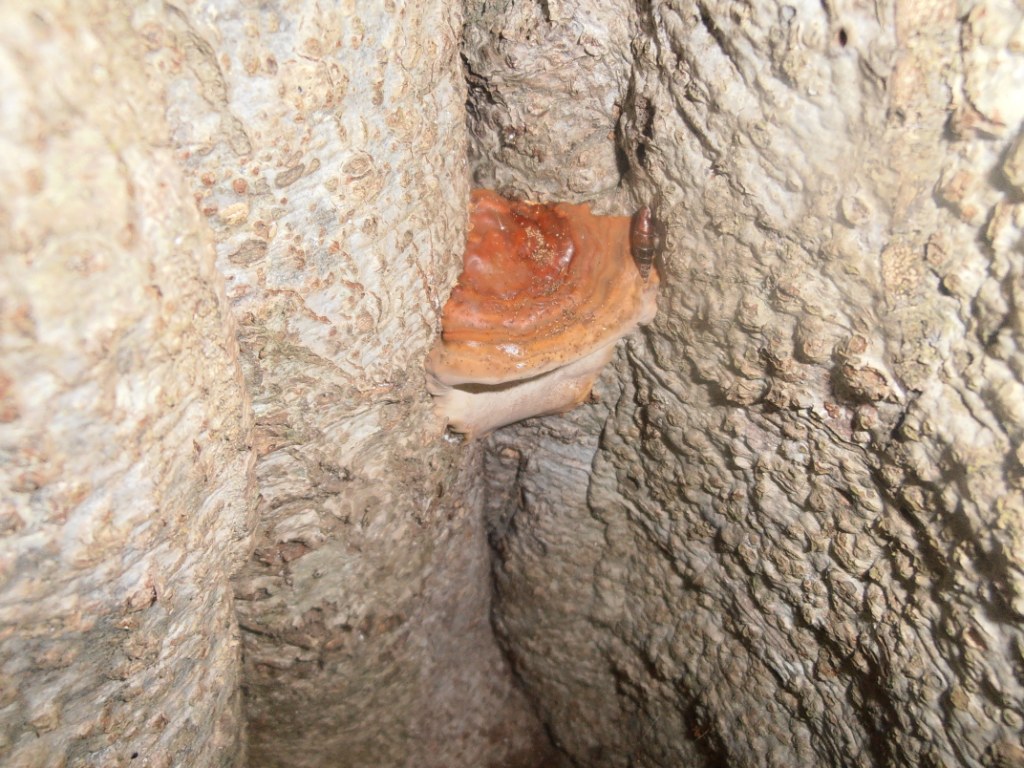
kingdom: Fungi
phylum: Basidiomycota
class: Agaricomycetes
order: Polyporales
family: Polyporaceae
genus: Ganoderma
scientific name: Ganoderma pfeifferi
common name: kobberrød lakporesvamp
